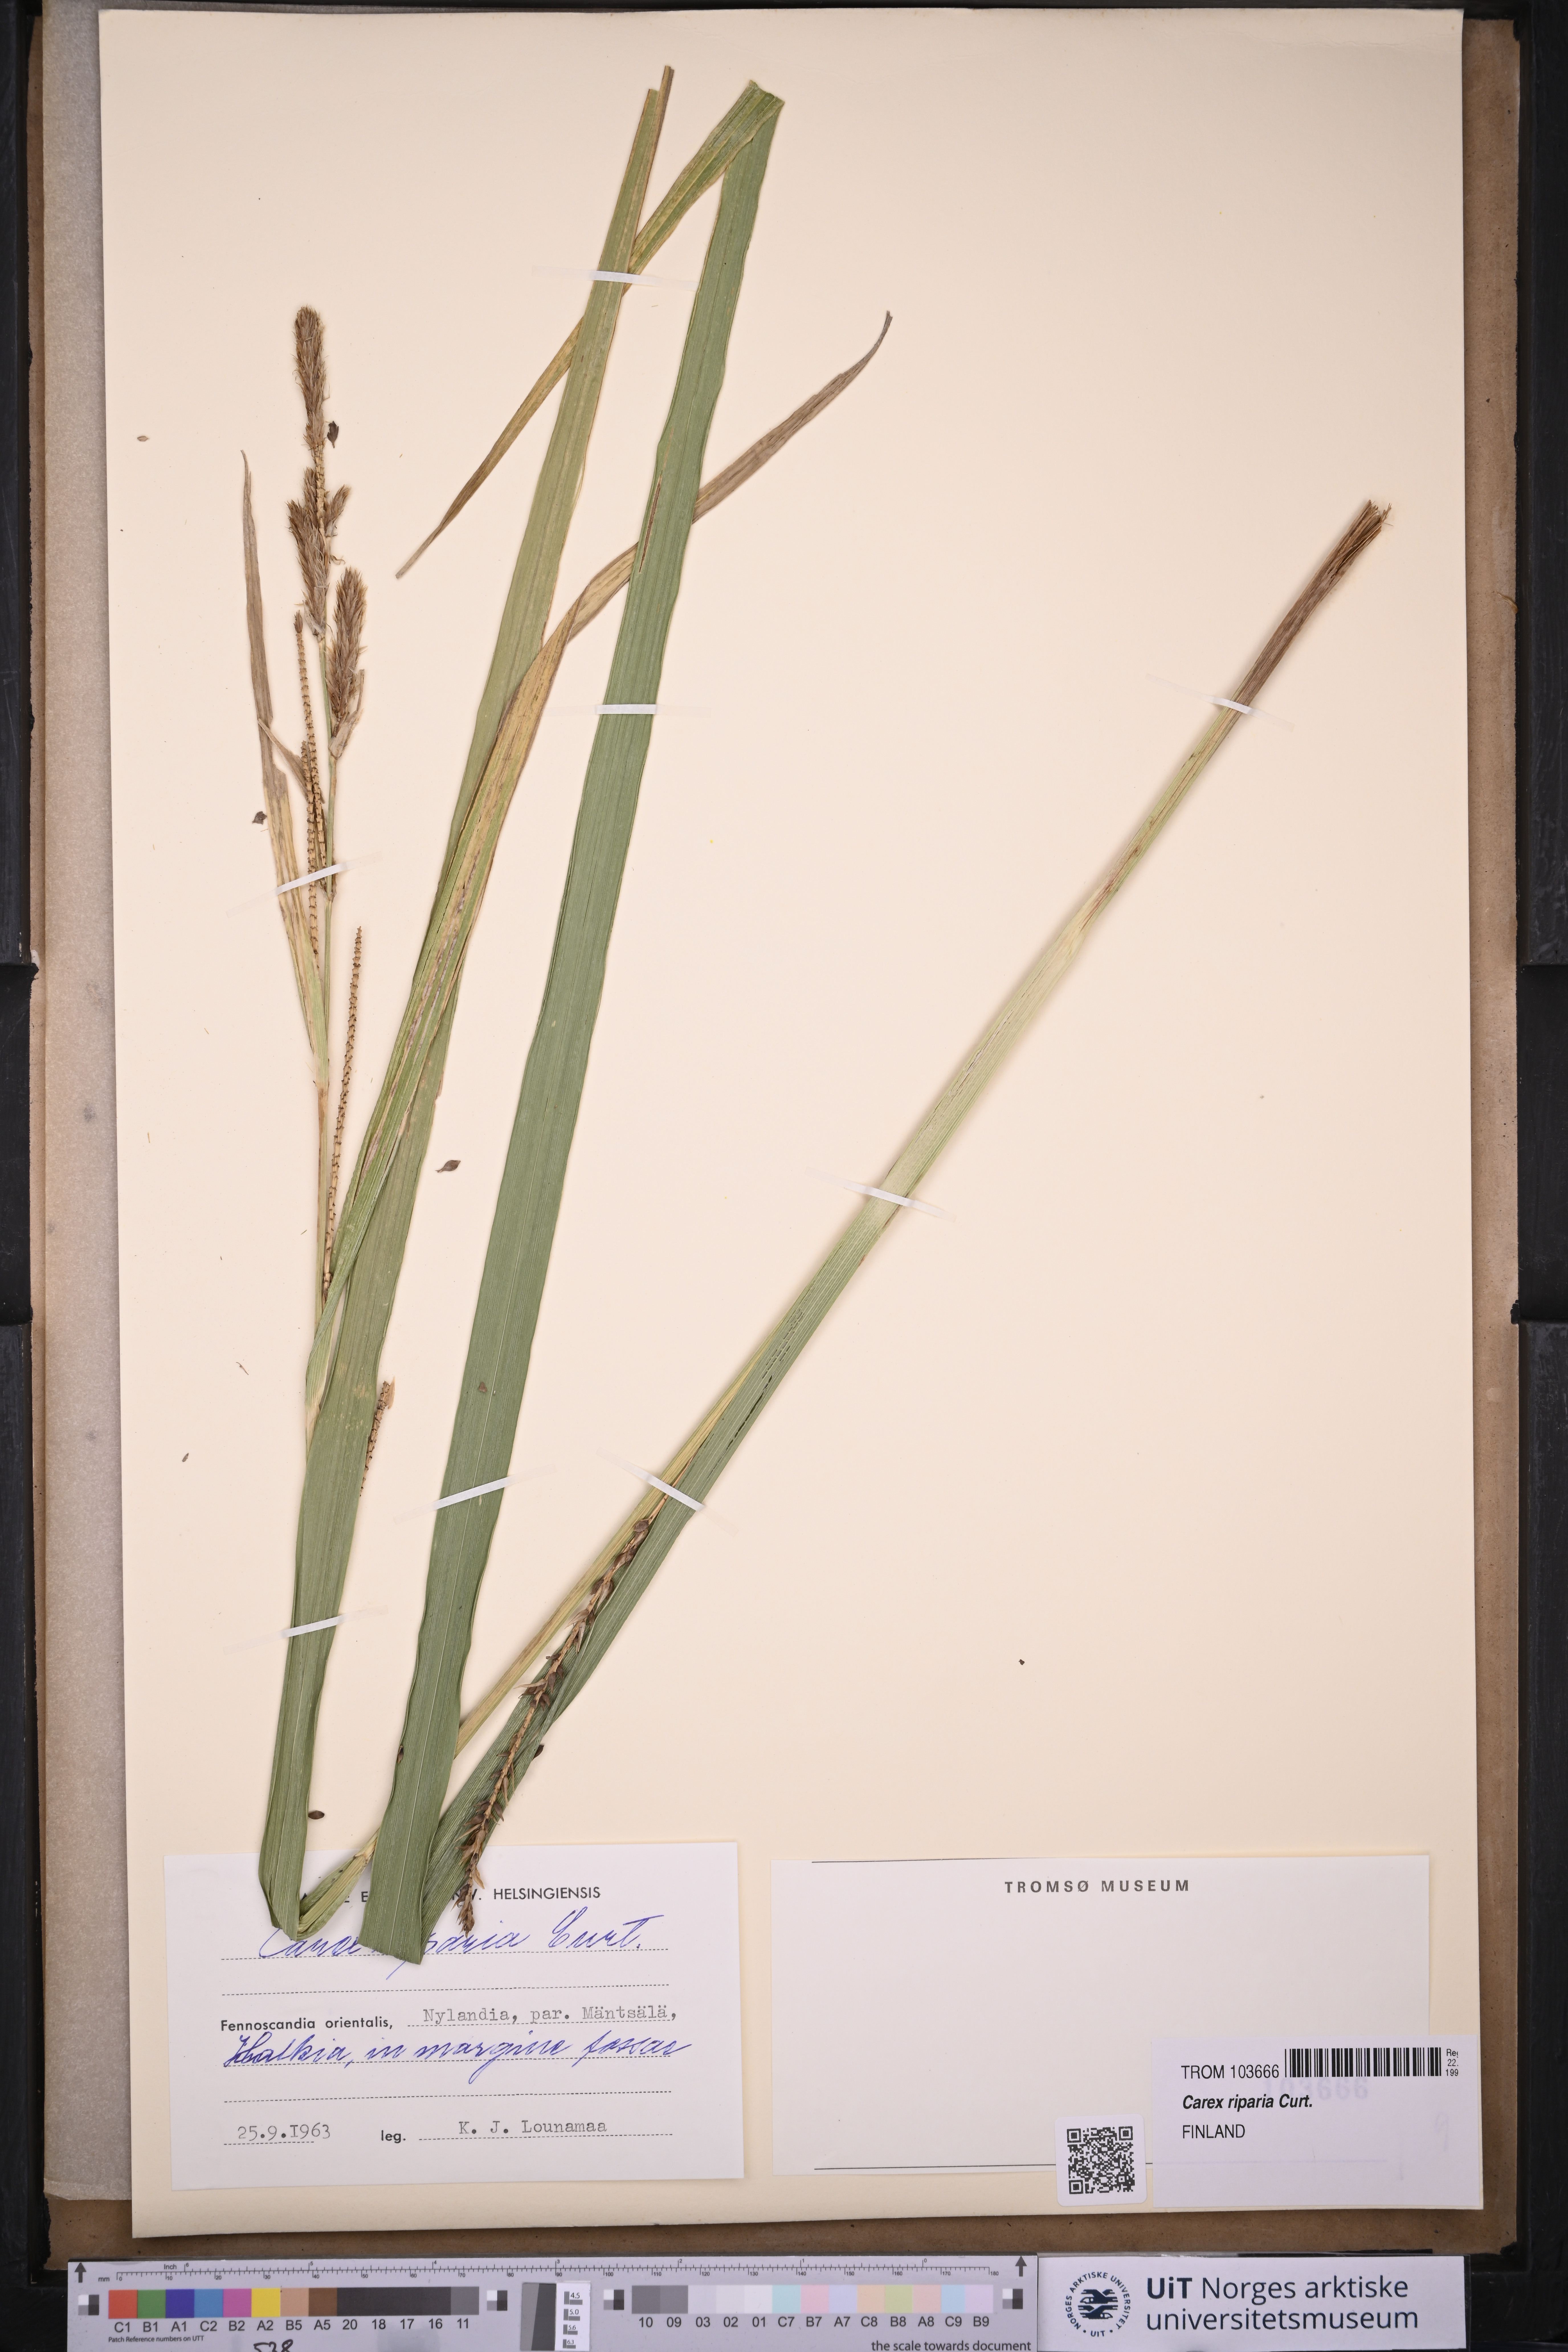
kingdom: Plantae
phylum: Tracheophyta
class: Liliopsida
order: Poales
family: Cyperaceae
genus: Carex
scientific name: Carex riparia
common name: Greater pond-sedge
